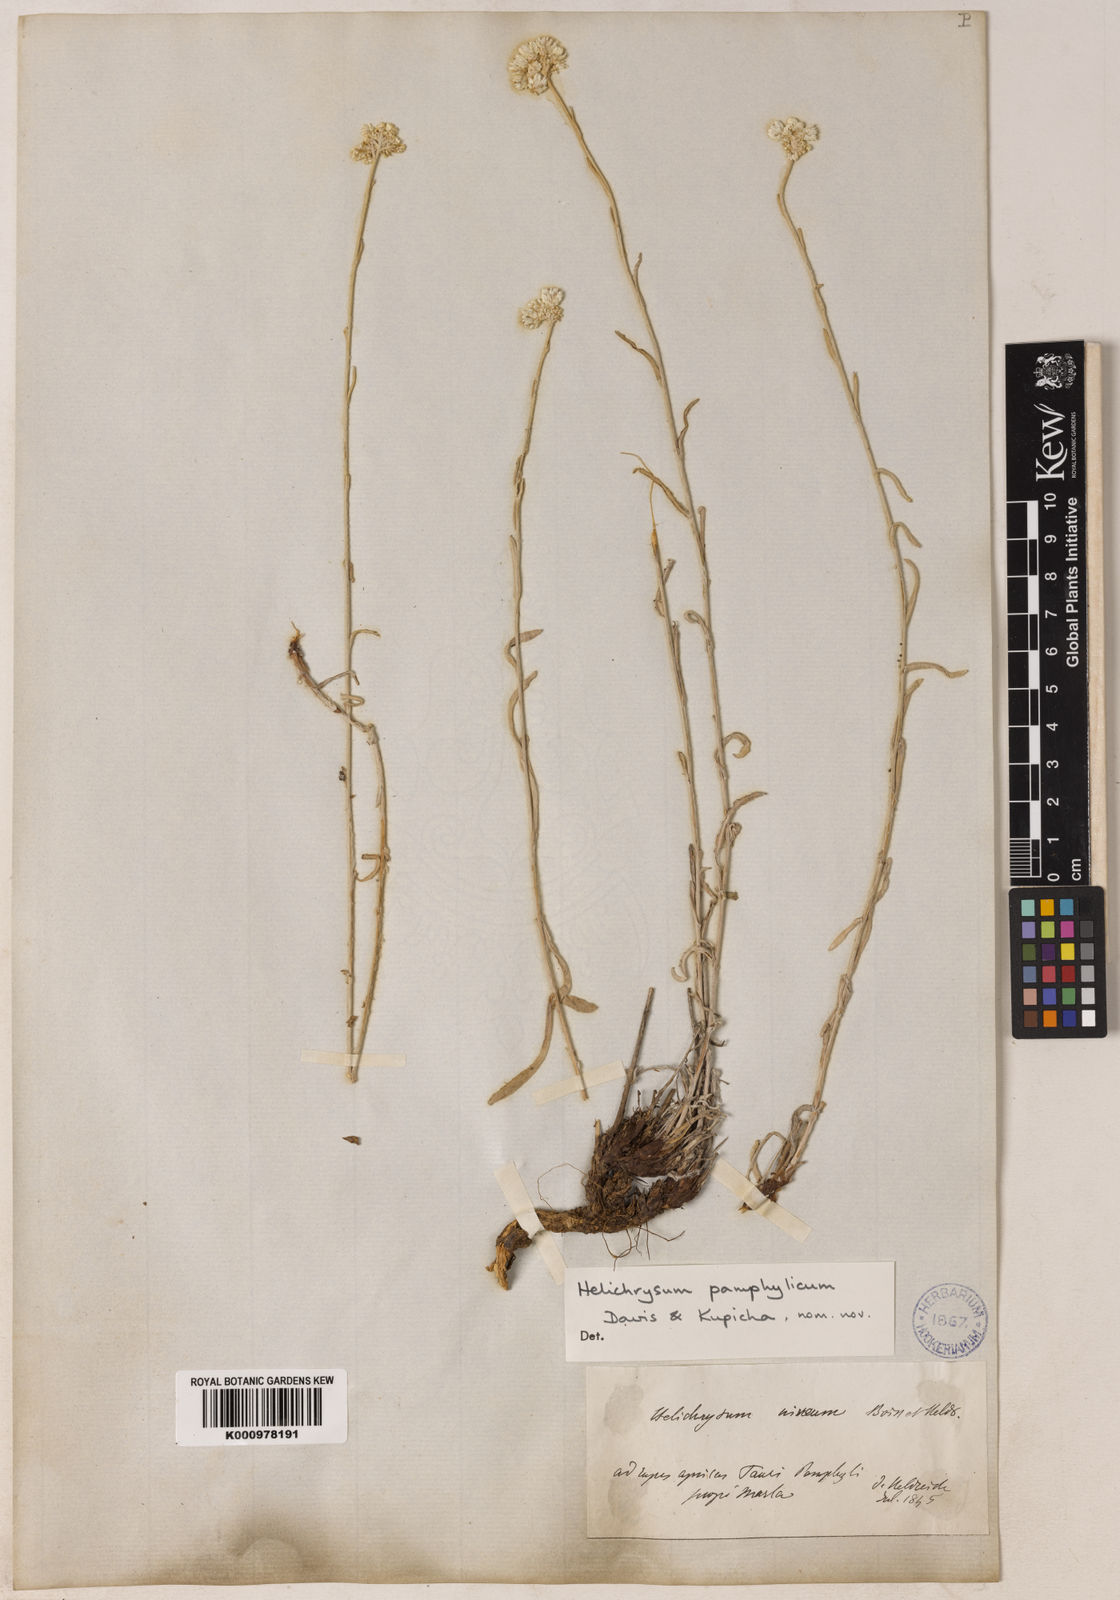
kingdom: Plantae
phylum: Tracheophyta
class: Magnoliopsida
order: Asterales
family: Asteraceae
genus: Helichrysum
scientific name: Helichrysum pamphylicum
